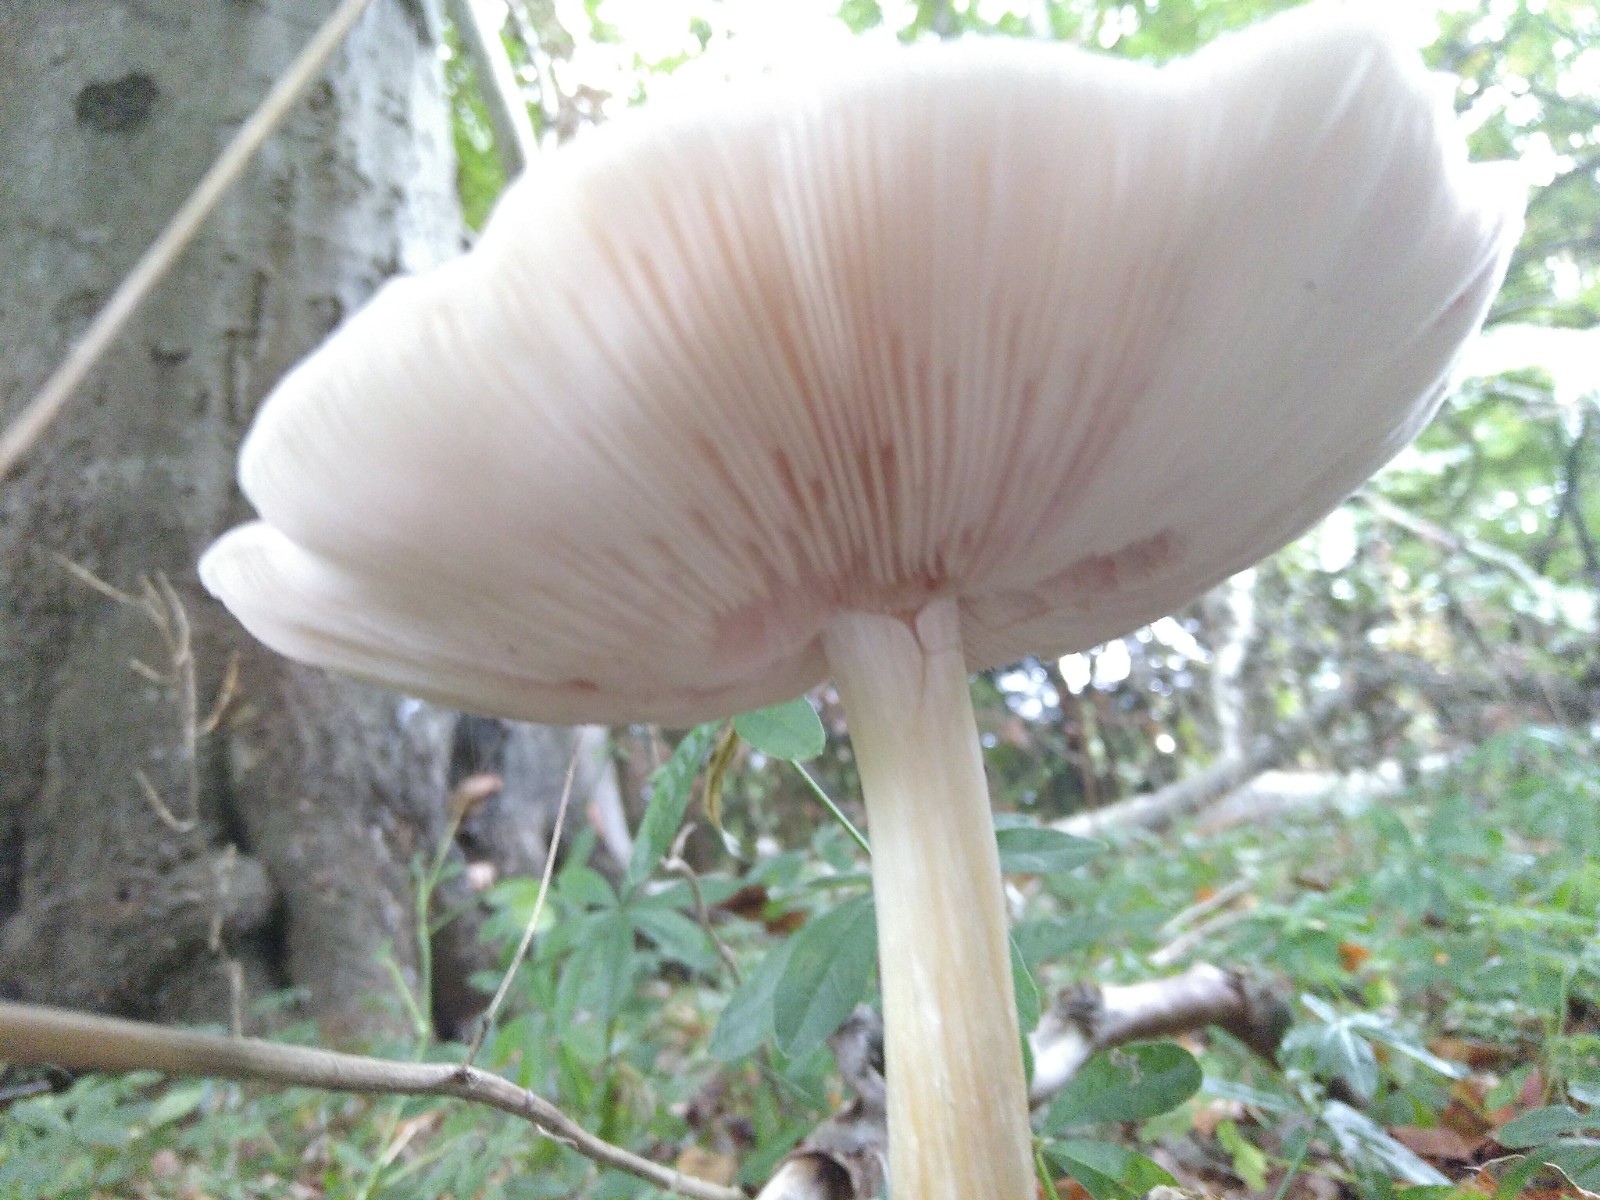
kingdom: Fungi
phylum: Basidiomycota
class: Agaricomycetes
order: Agaricales
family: Pluteaceae
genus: Pluteus
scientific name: Pluteus salicinus
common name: stiv skærmhat
